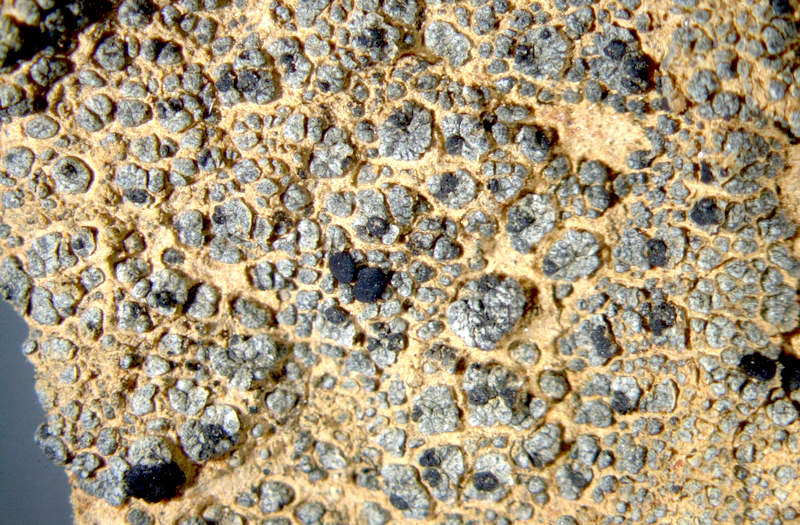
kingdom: Fungi
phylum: Ascomycota
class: Lecanoromycetes
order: Lecanorales
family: Ramalinaceae
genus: Bibbya
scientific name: Bibbya australis
